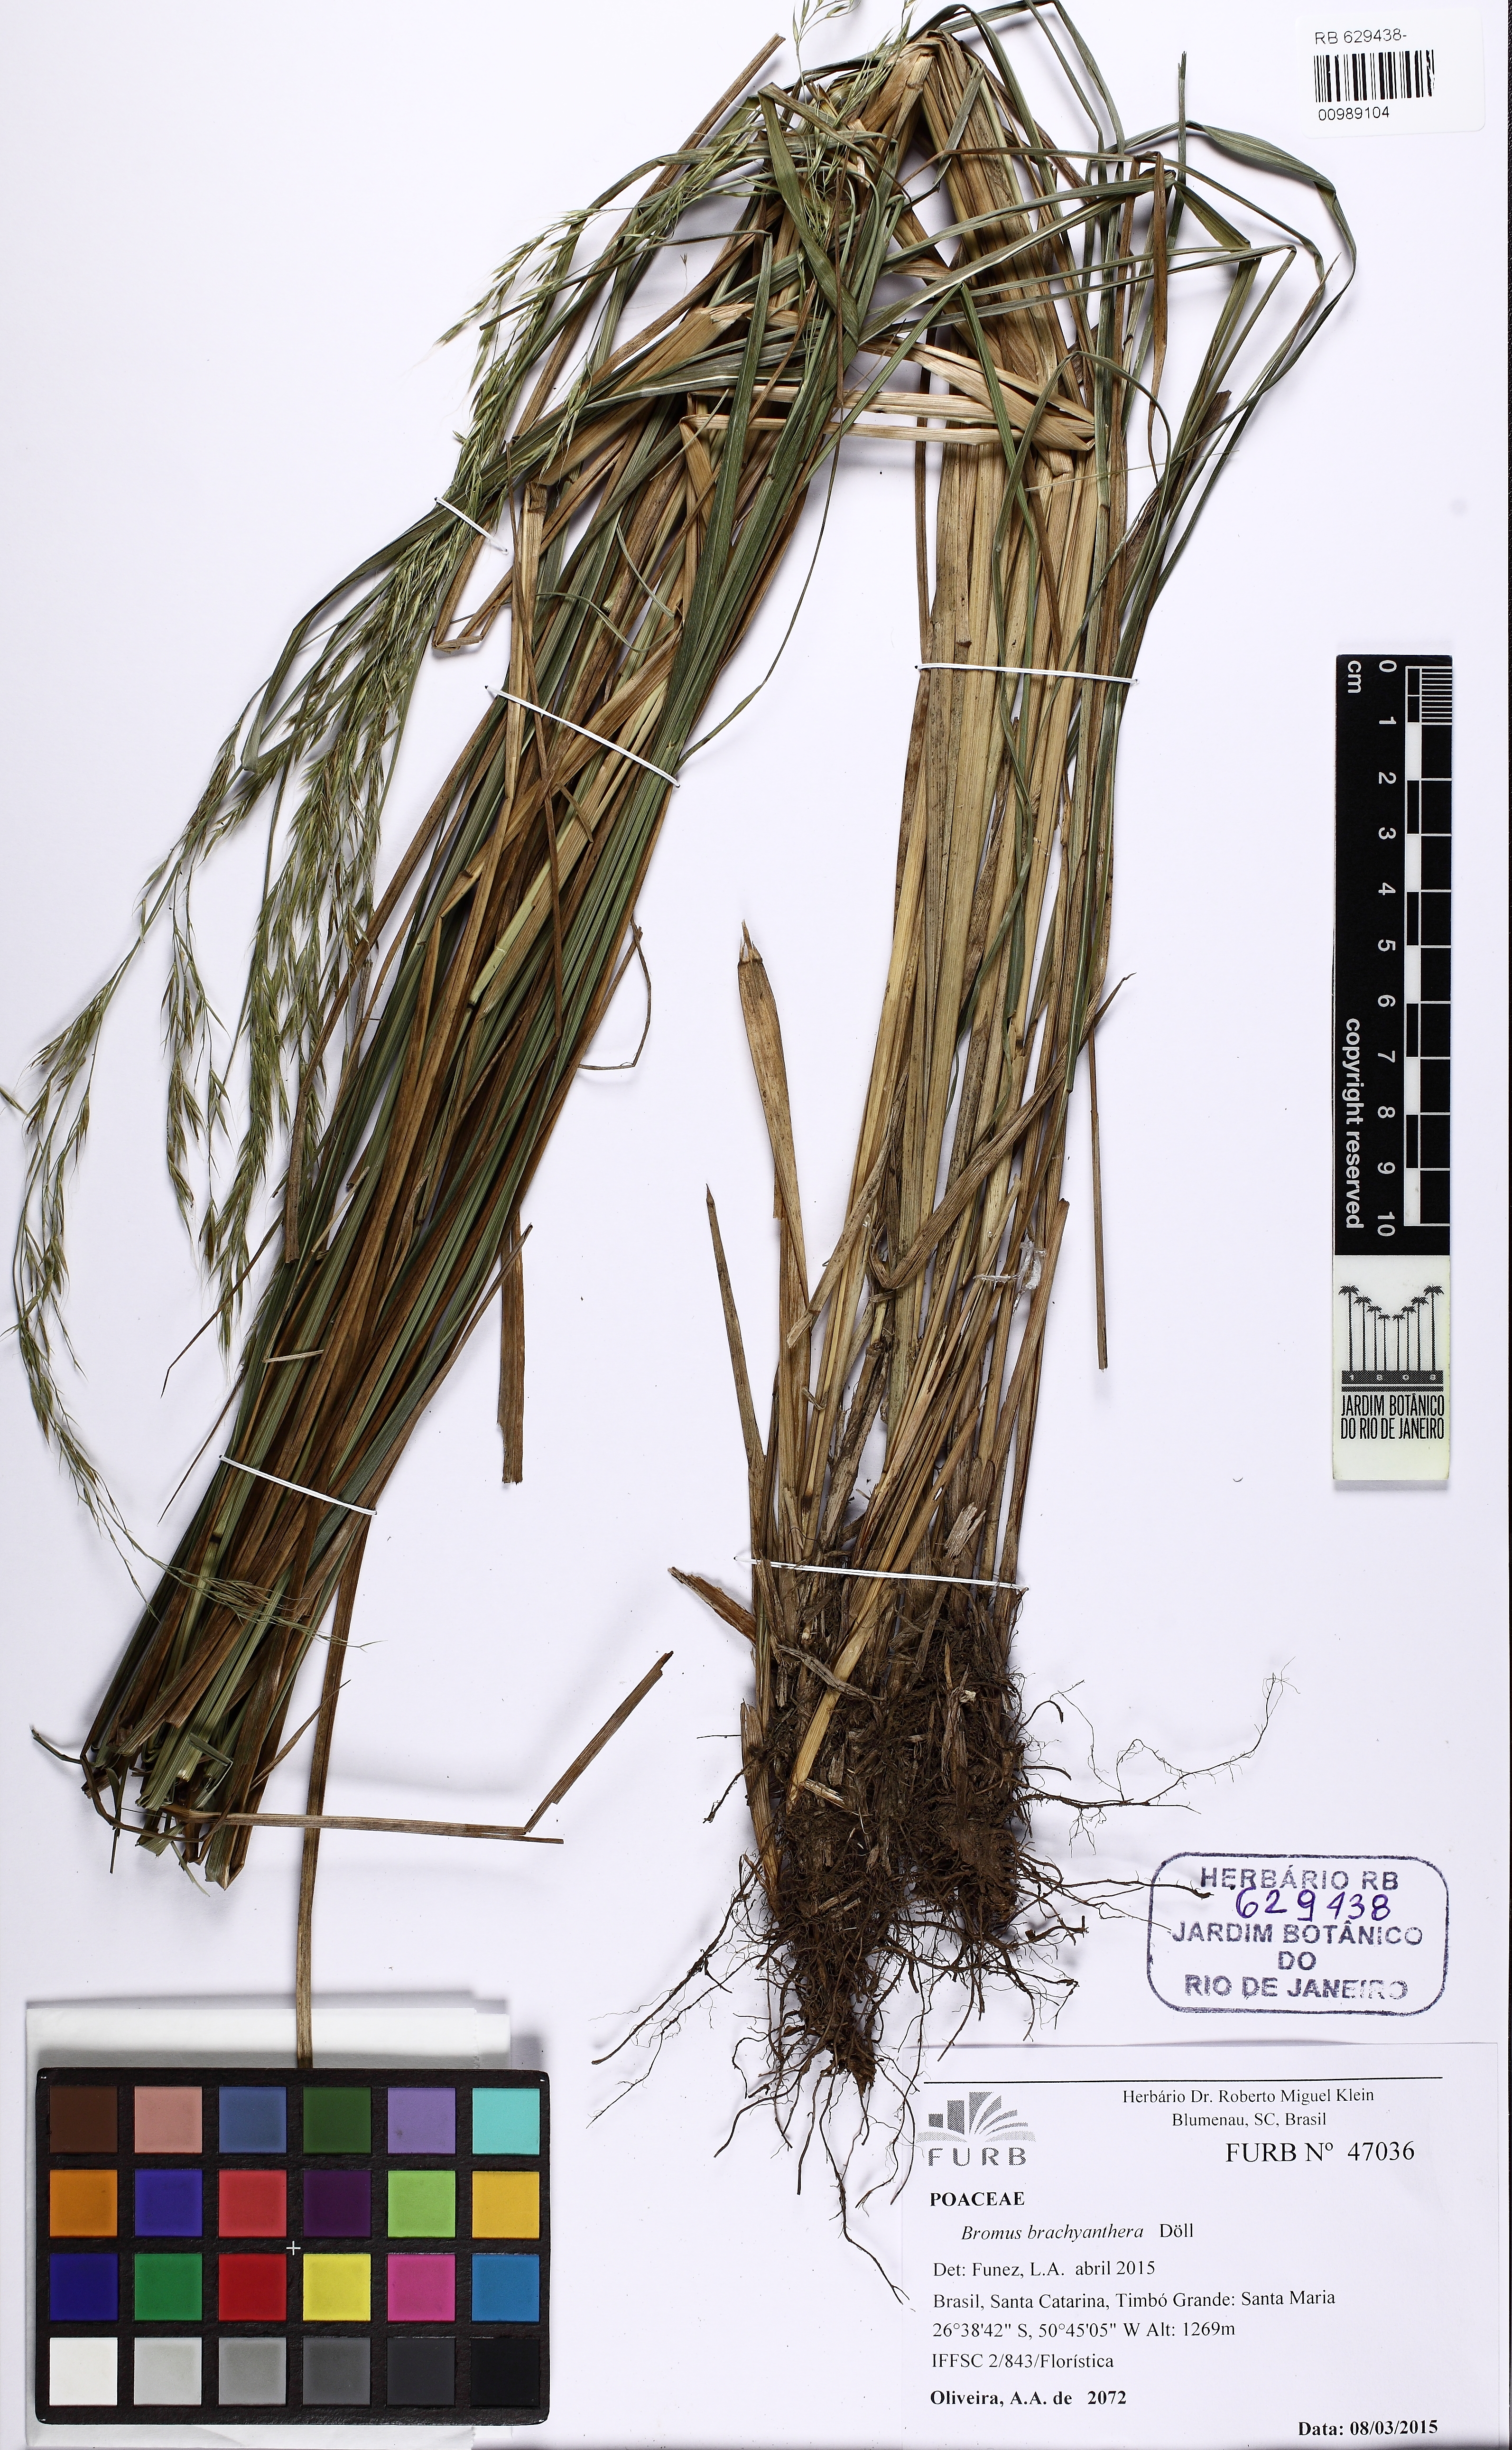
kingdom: Plantae
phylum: Tracheophyta
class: Liliopsida
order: Poales
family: Poaceae
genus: Bromus
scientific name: Bromus brachyantherus
